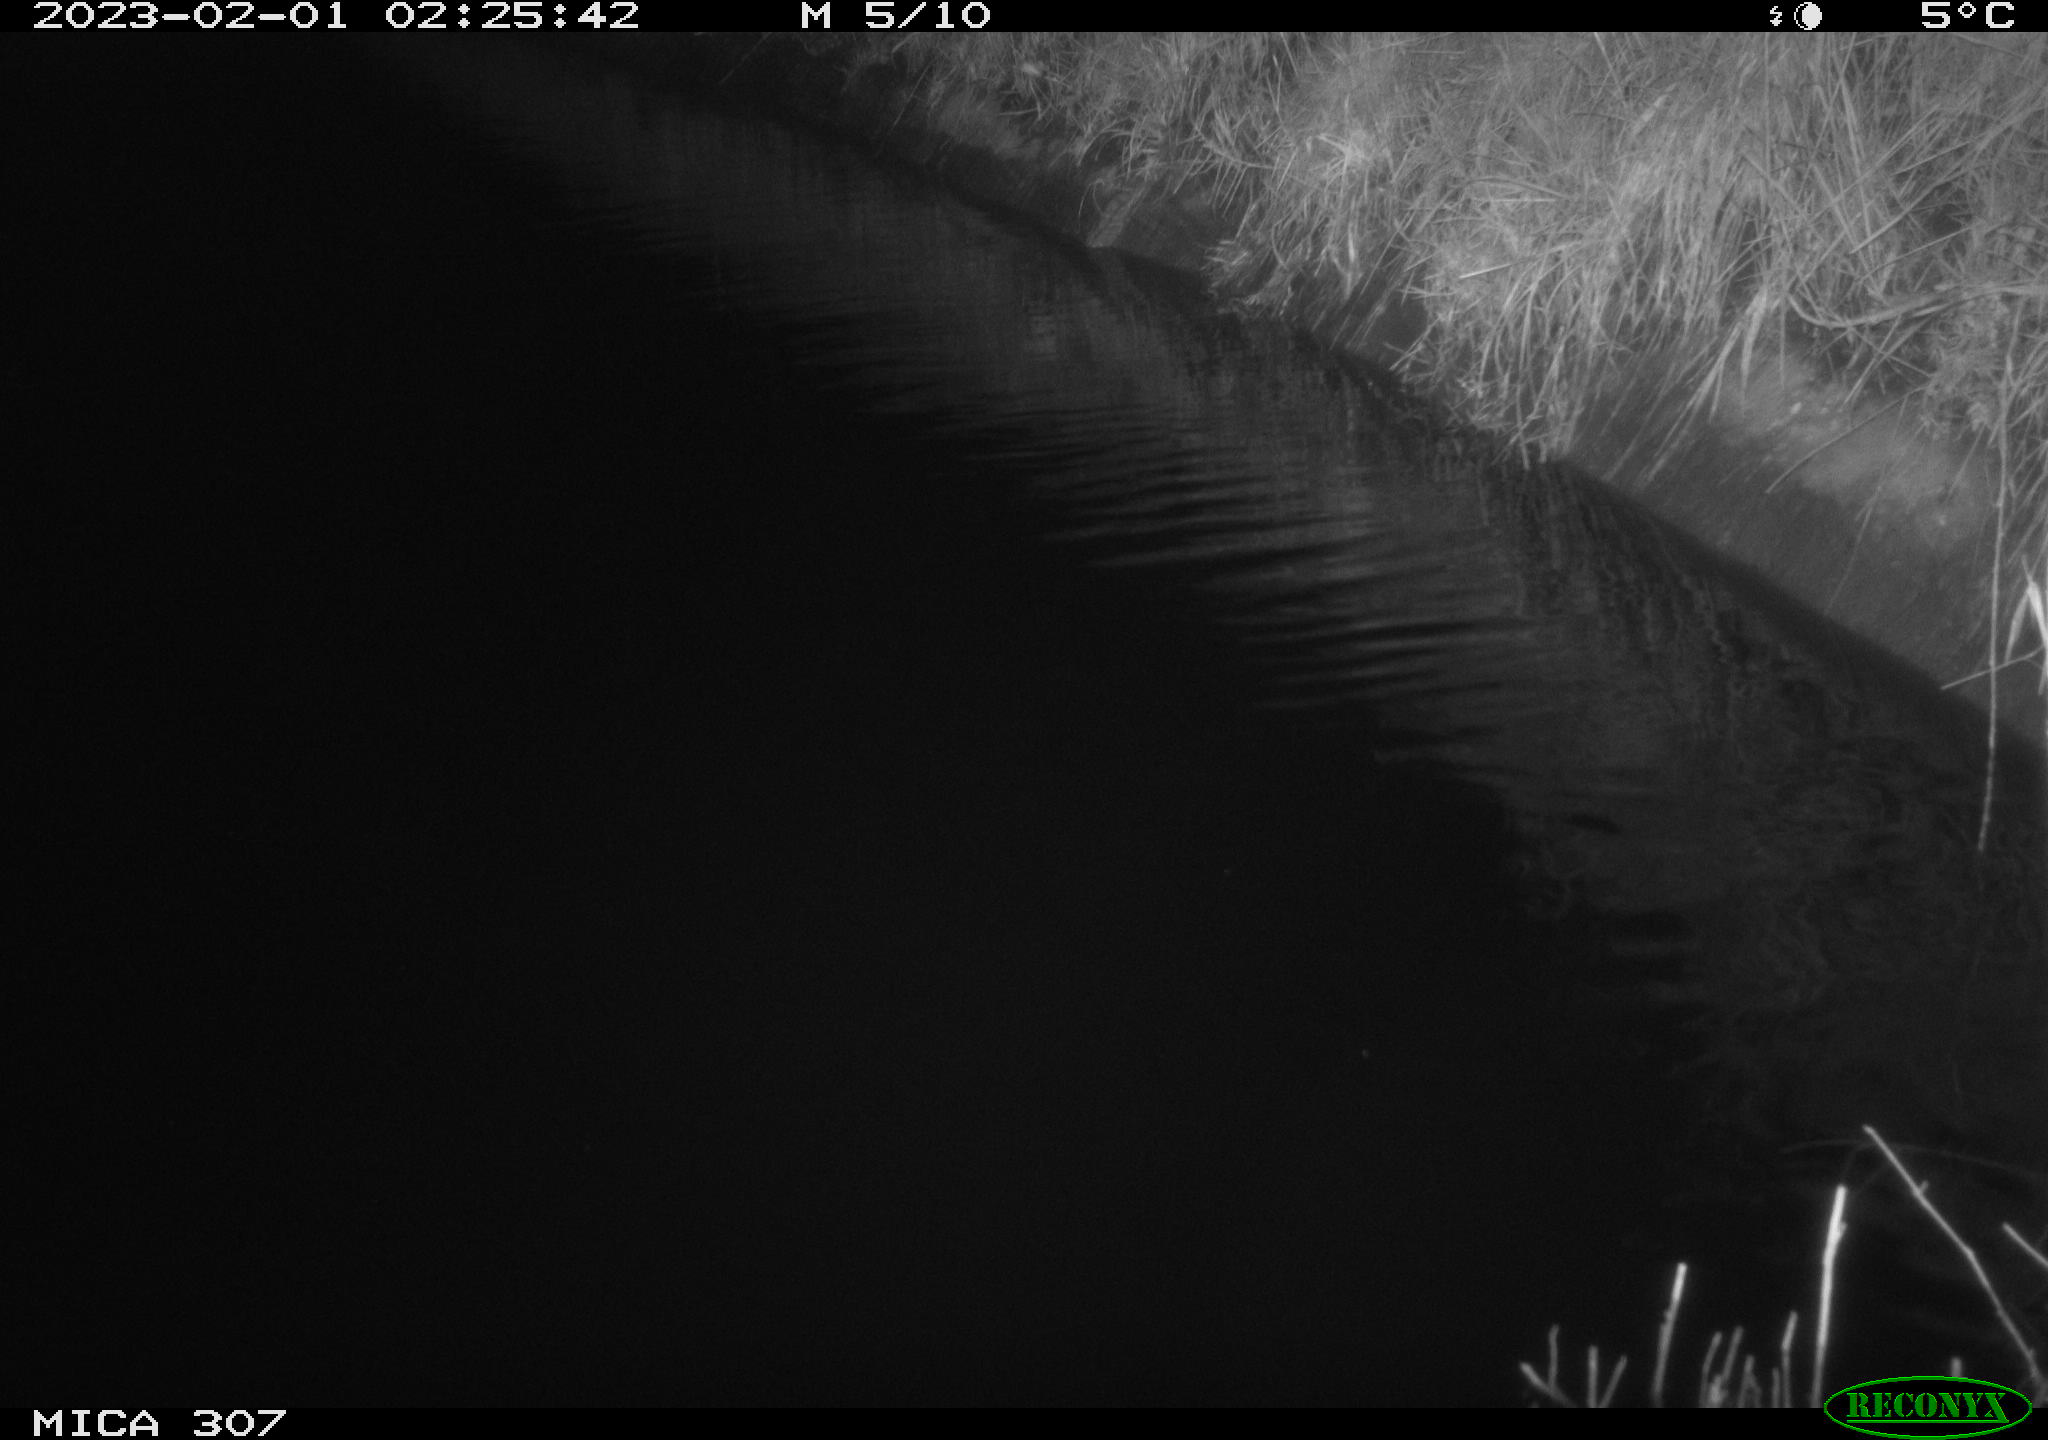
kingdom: Animalia
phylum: Chordata
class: Mammalia
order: Rodentia
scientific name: Rodentia
